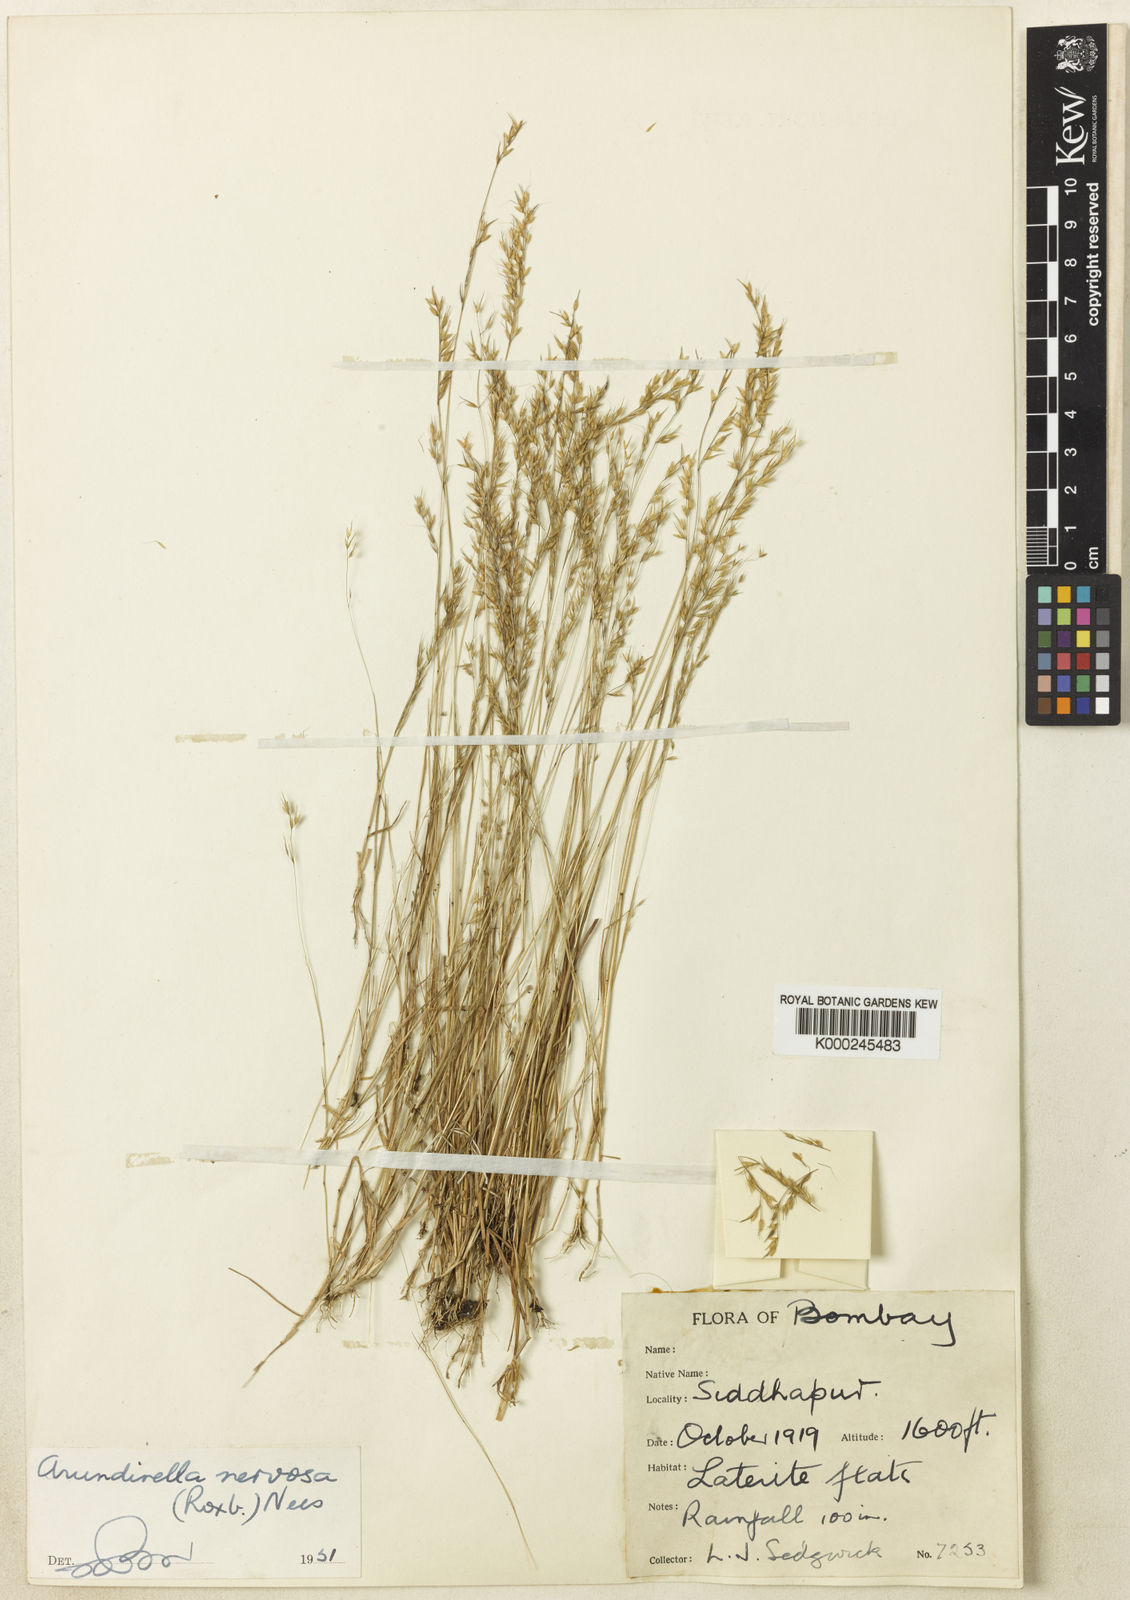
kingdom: Plantae
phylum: Tracheophyta
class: Liliopsida
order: Poales
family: Poaceae
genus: Arundinella
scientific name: Arundinella nervosa
